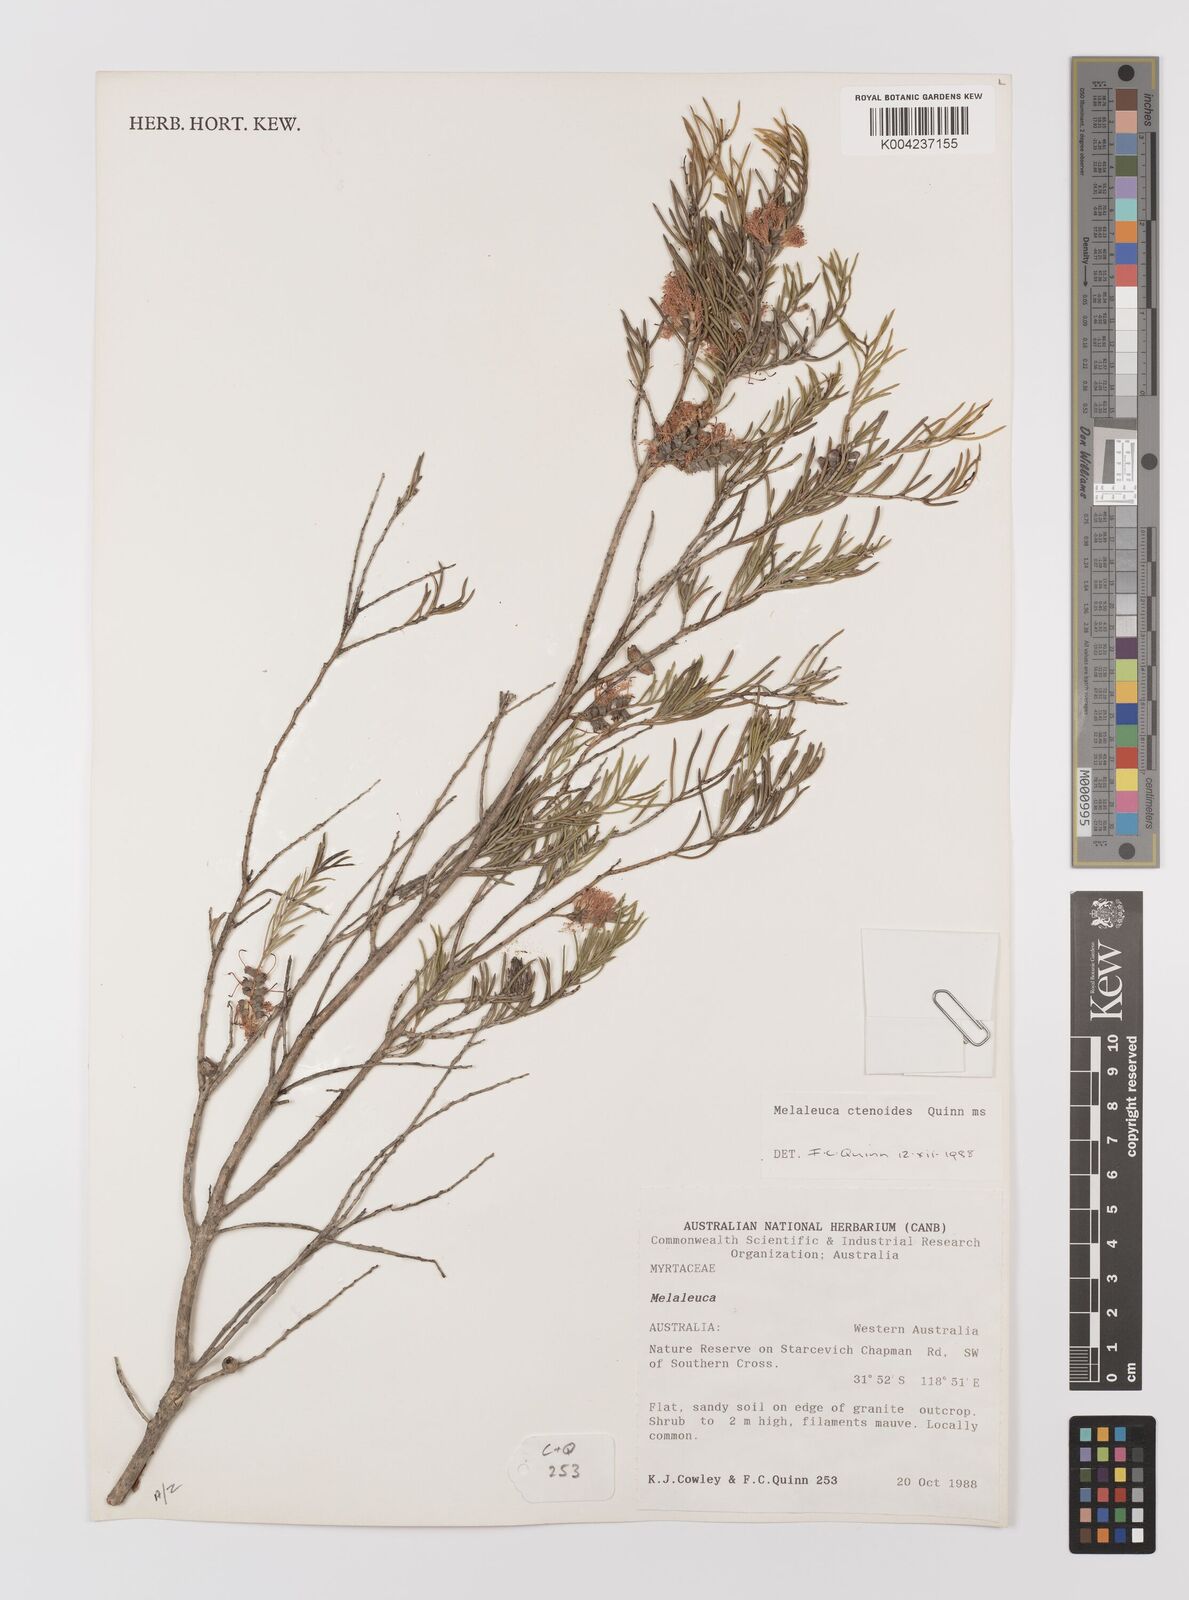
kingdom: Plantae
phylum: Tracheophyta
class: Magnoliopsida
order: Myrtales
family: Myrtaceae
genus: Melaleuca
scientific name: Melaleuca ctenoides
